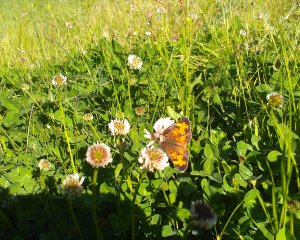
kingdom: Animalia
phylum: Arthropoda
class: Insecta
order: Lepidoptera
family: Nymphalidae
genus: Phyciodes
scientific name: Phyciodes tharos
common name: Northern Crescent
